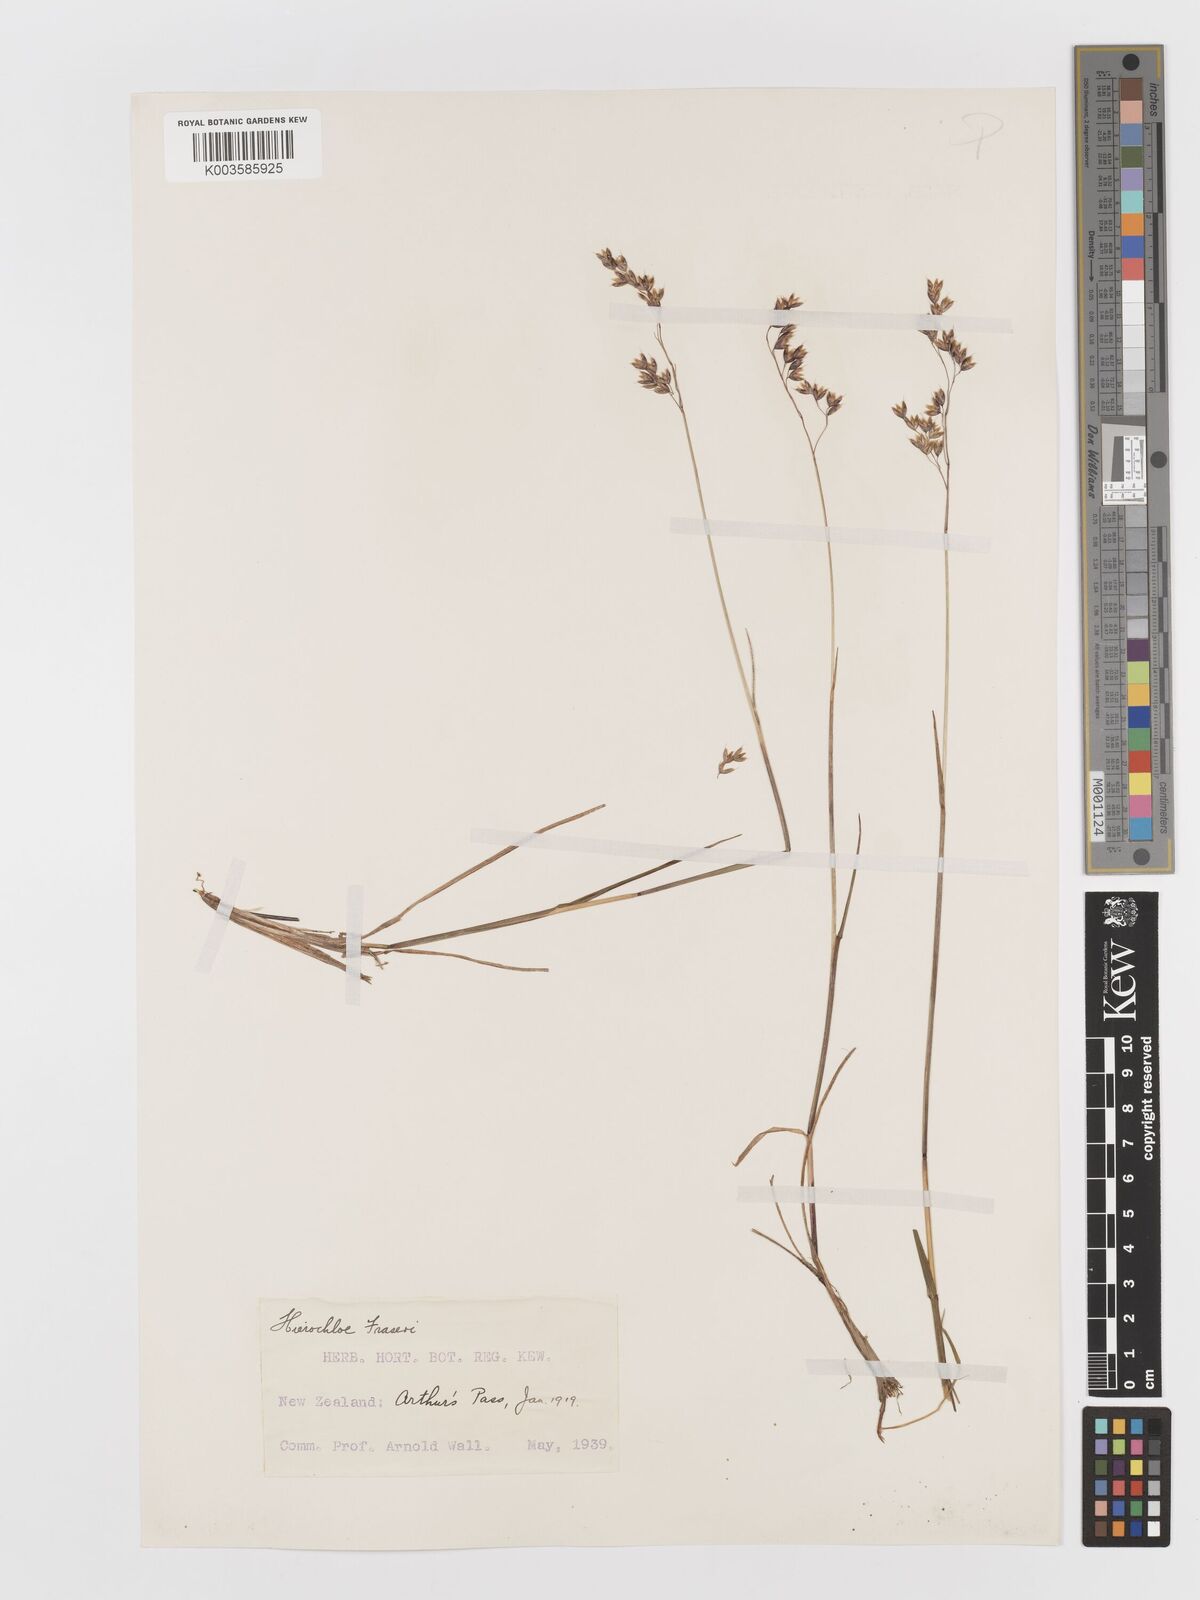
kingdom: Plantae
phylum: Tracheophyta
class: Liliopsida
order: Poales
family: Poaceae
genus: Anthoxanthum
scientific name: Anthoxanthum novae-zelandiae
